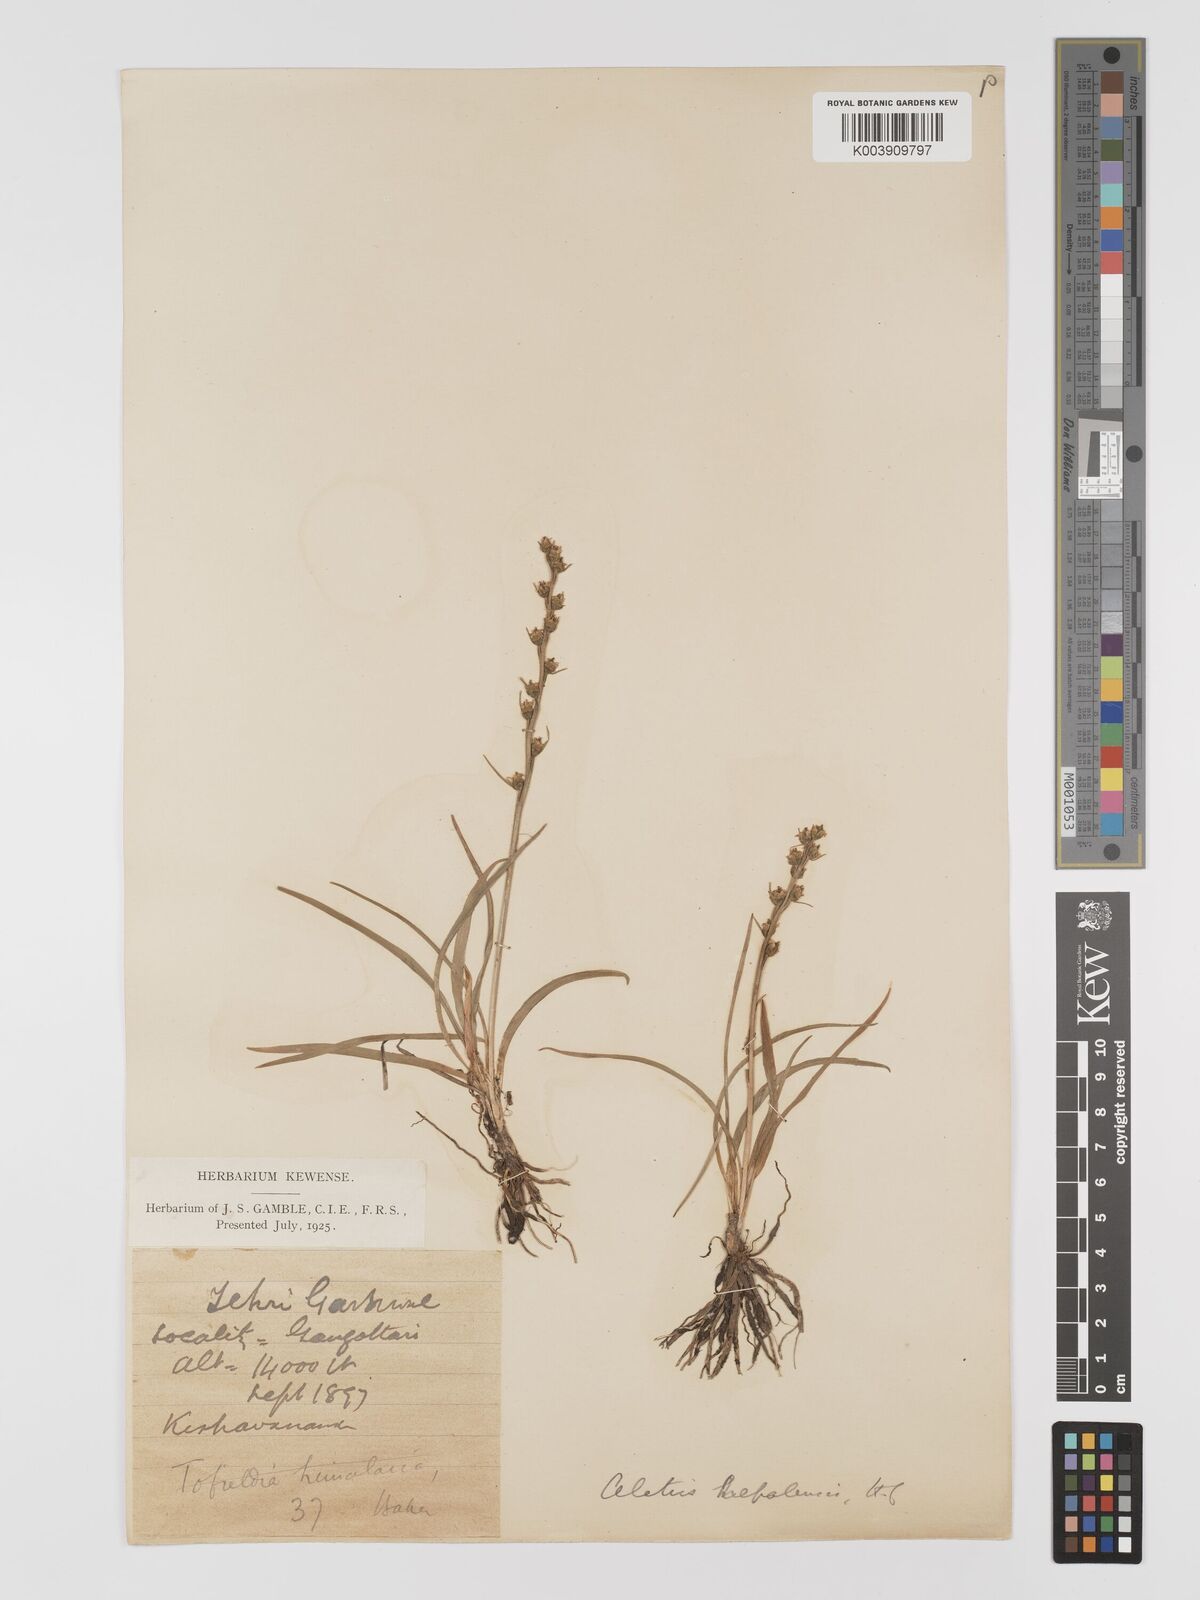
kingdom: Plantae
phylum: Tracheophyta
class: Liliopsida
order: Dioscoreales
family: Nartheciaceae
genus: Aletris
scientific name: Aletris pauciflora
